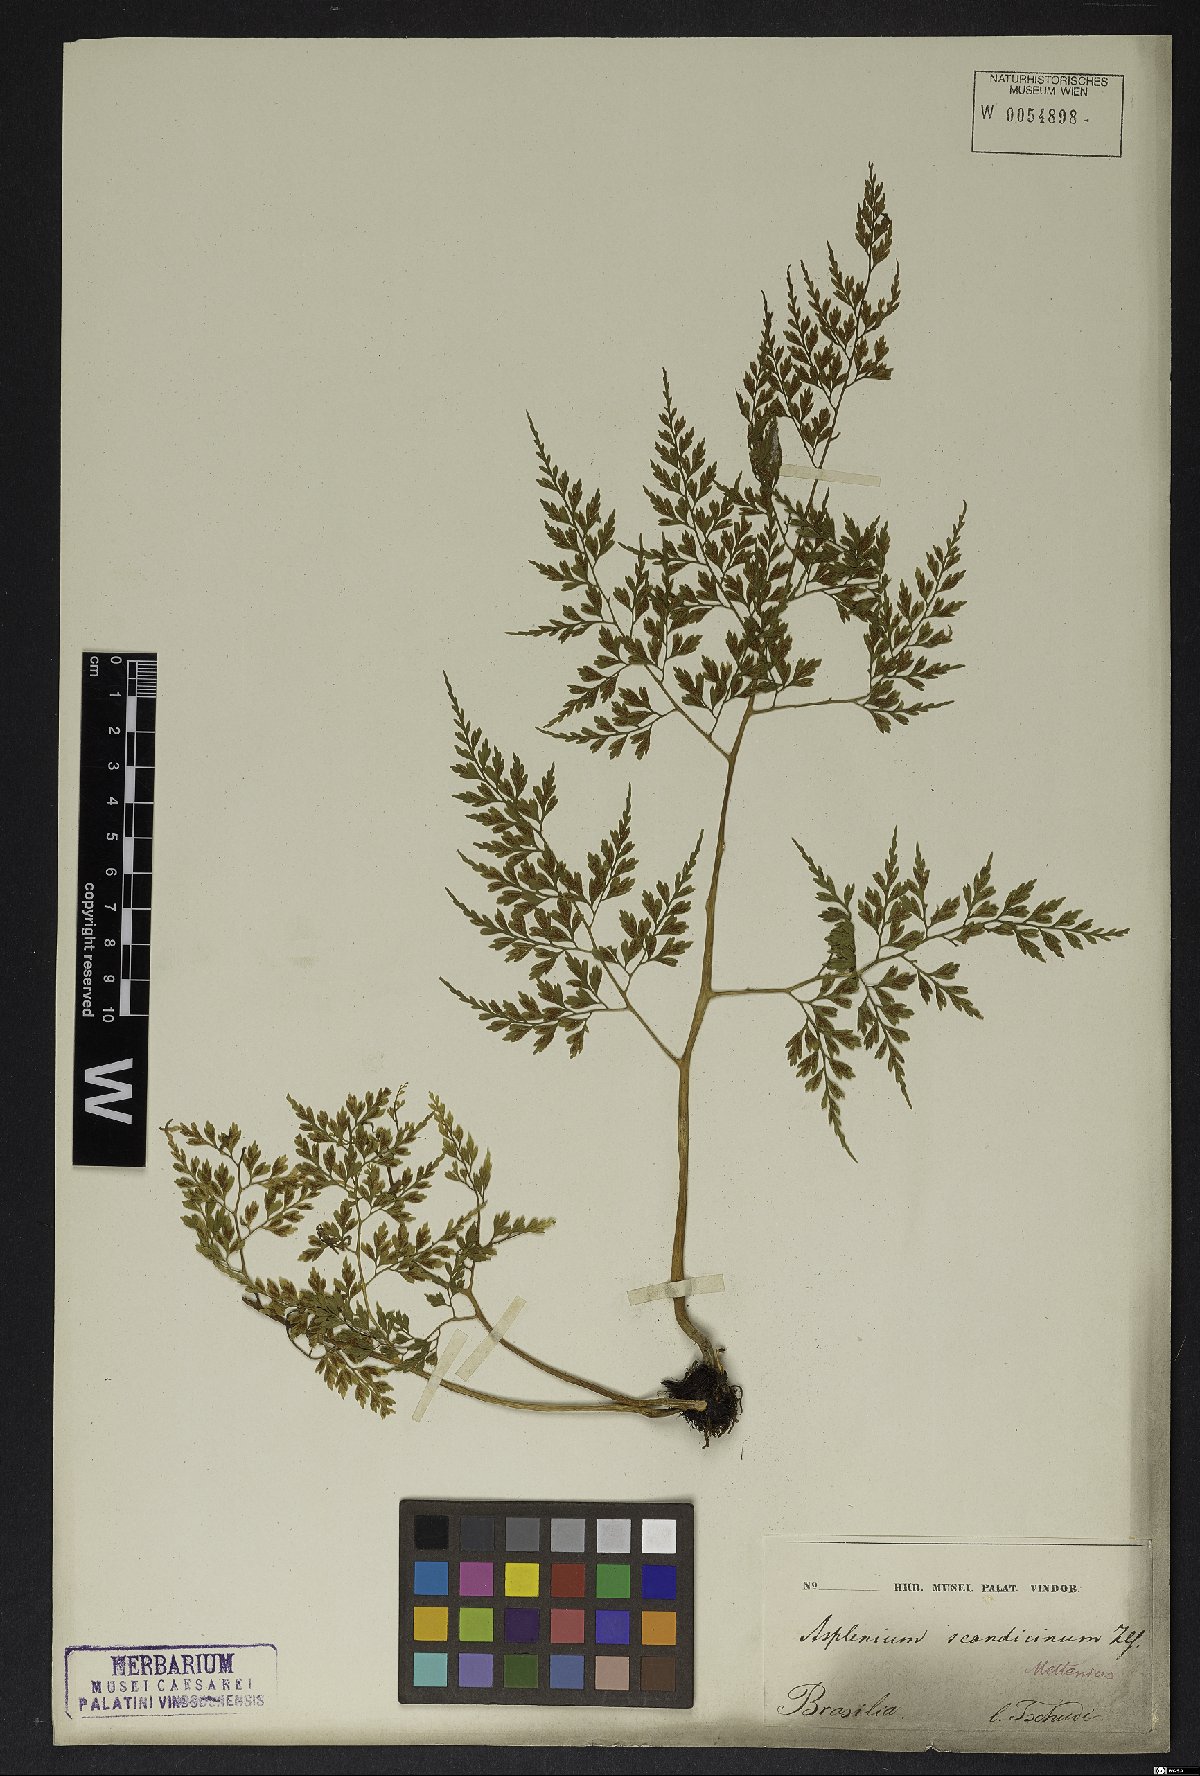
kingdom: Plantae
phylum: Tracheophyta
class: Polypodiopsida
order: Polypodiales
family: Aspleniaceae
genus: Asplenium
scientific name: Asplenium scandicinum
